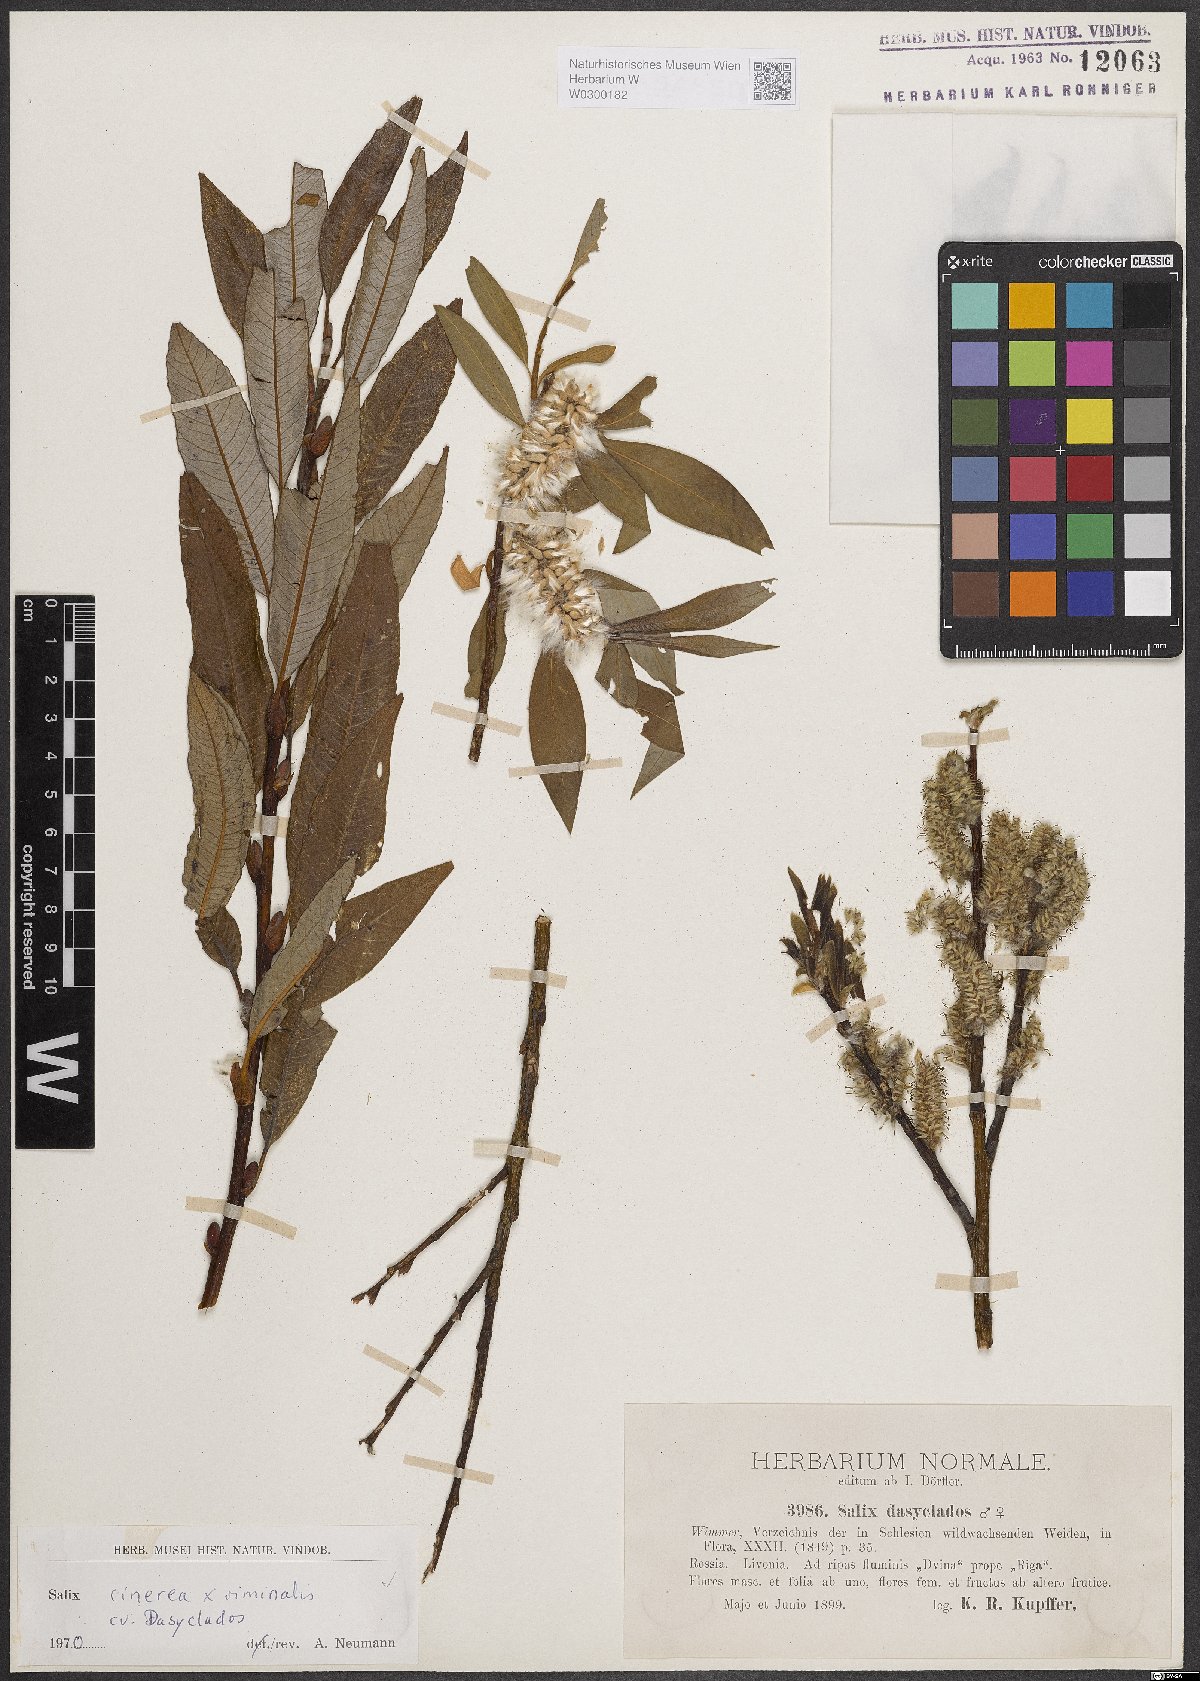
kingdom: Plantae
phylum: Tracheophyta
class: Magnoliopsida
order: Malpighiales
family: Salicaceae
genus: Salix
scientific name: Salix
